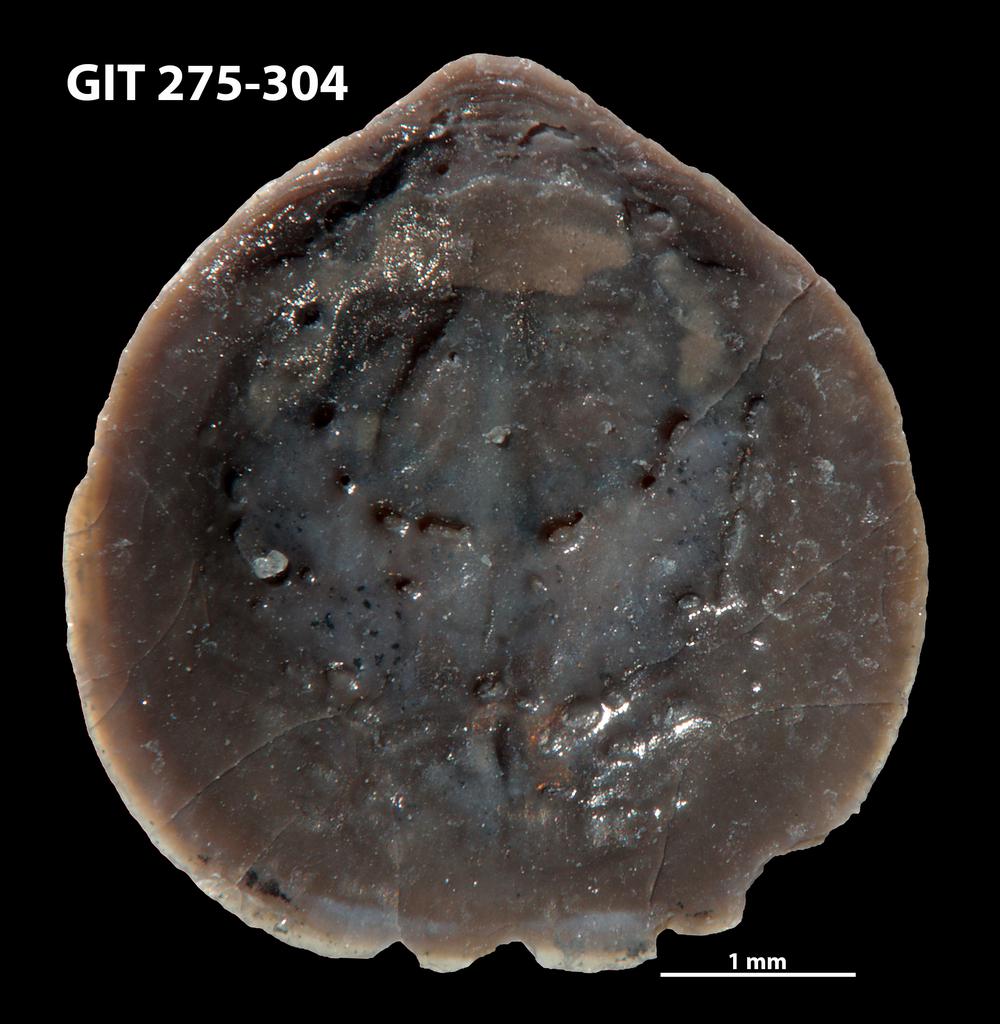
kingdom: Animalia
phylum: Brachiopoda
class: Lingulata
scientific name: Lingulata
